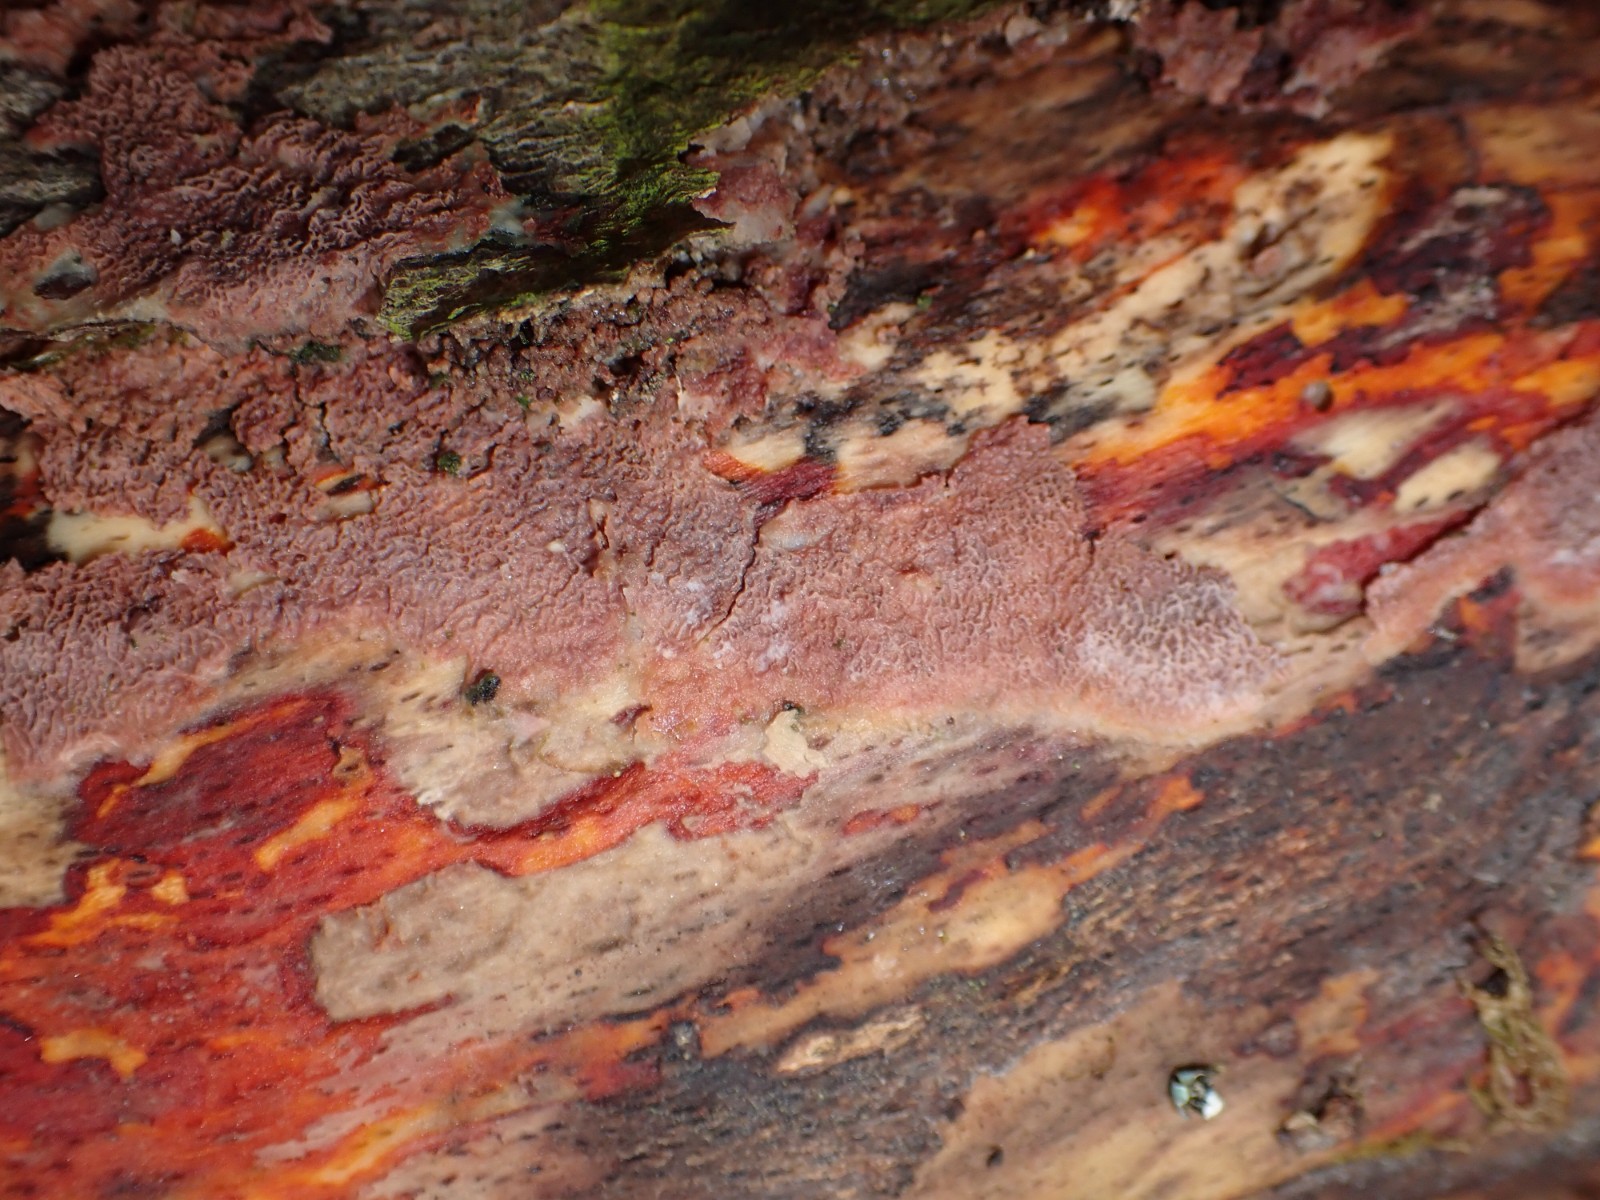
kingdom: Fungi
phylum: Basidiomycota
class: Agaricomycetes
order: Polyporales
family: Irpicaceae
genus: Ceriporia
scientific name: Ceriporia excelsa
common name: lilla voksporesvamp
